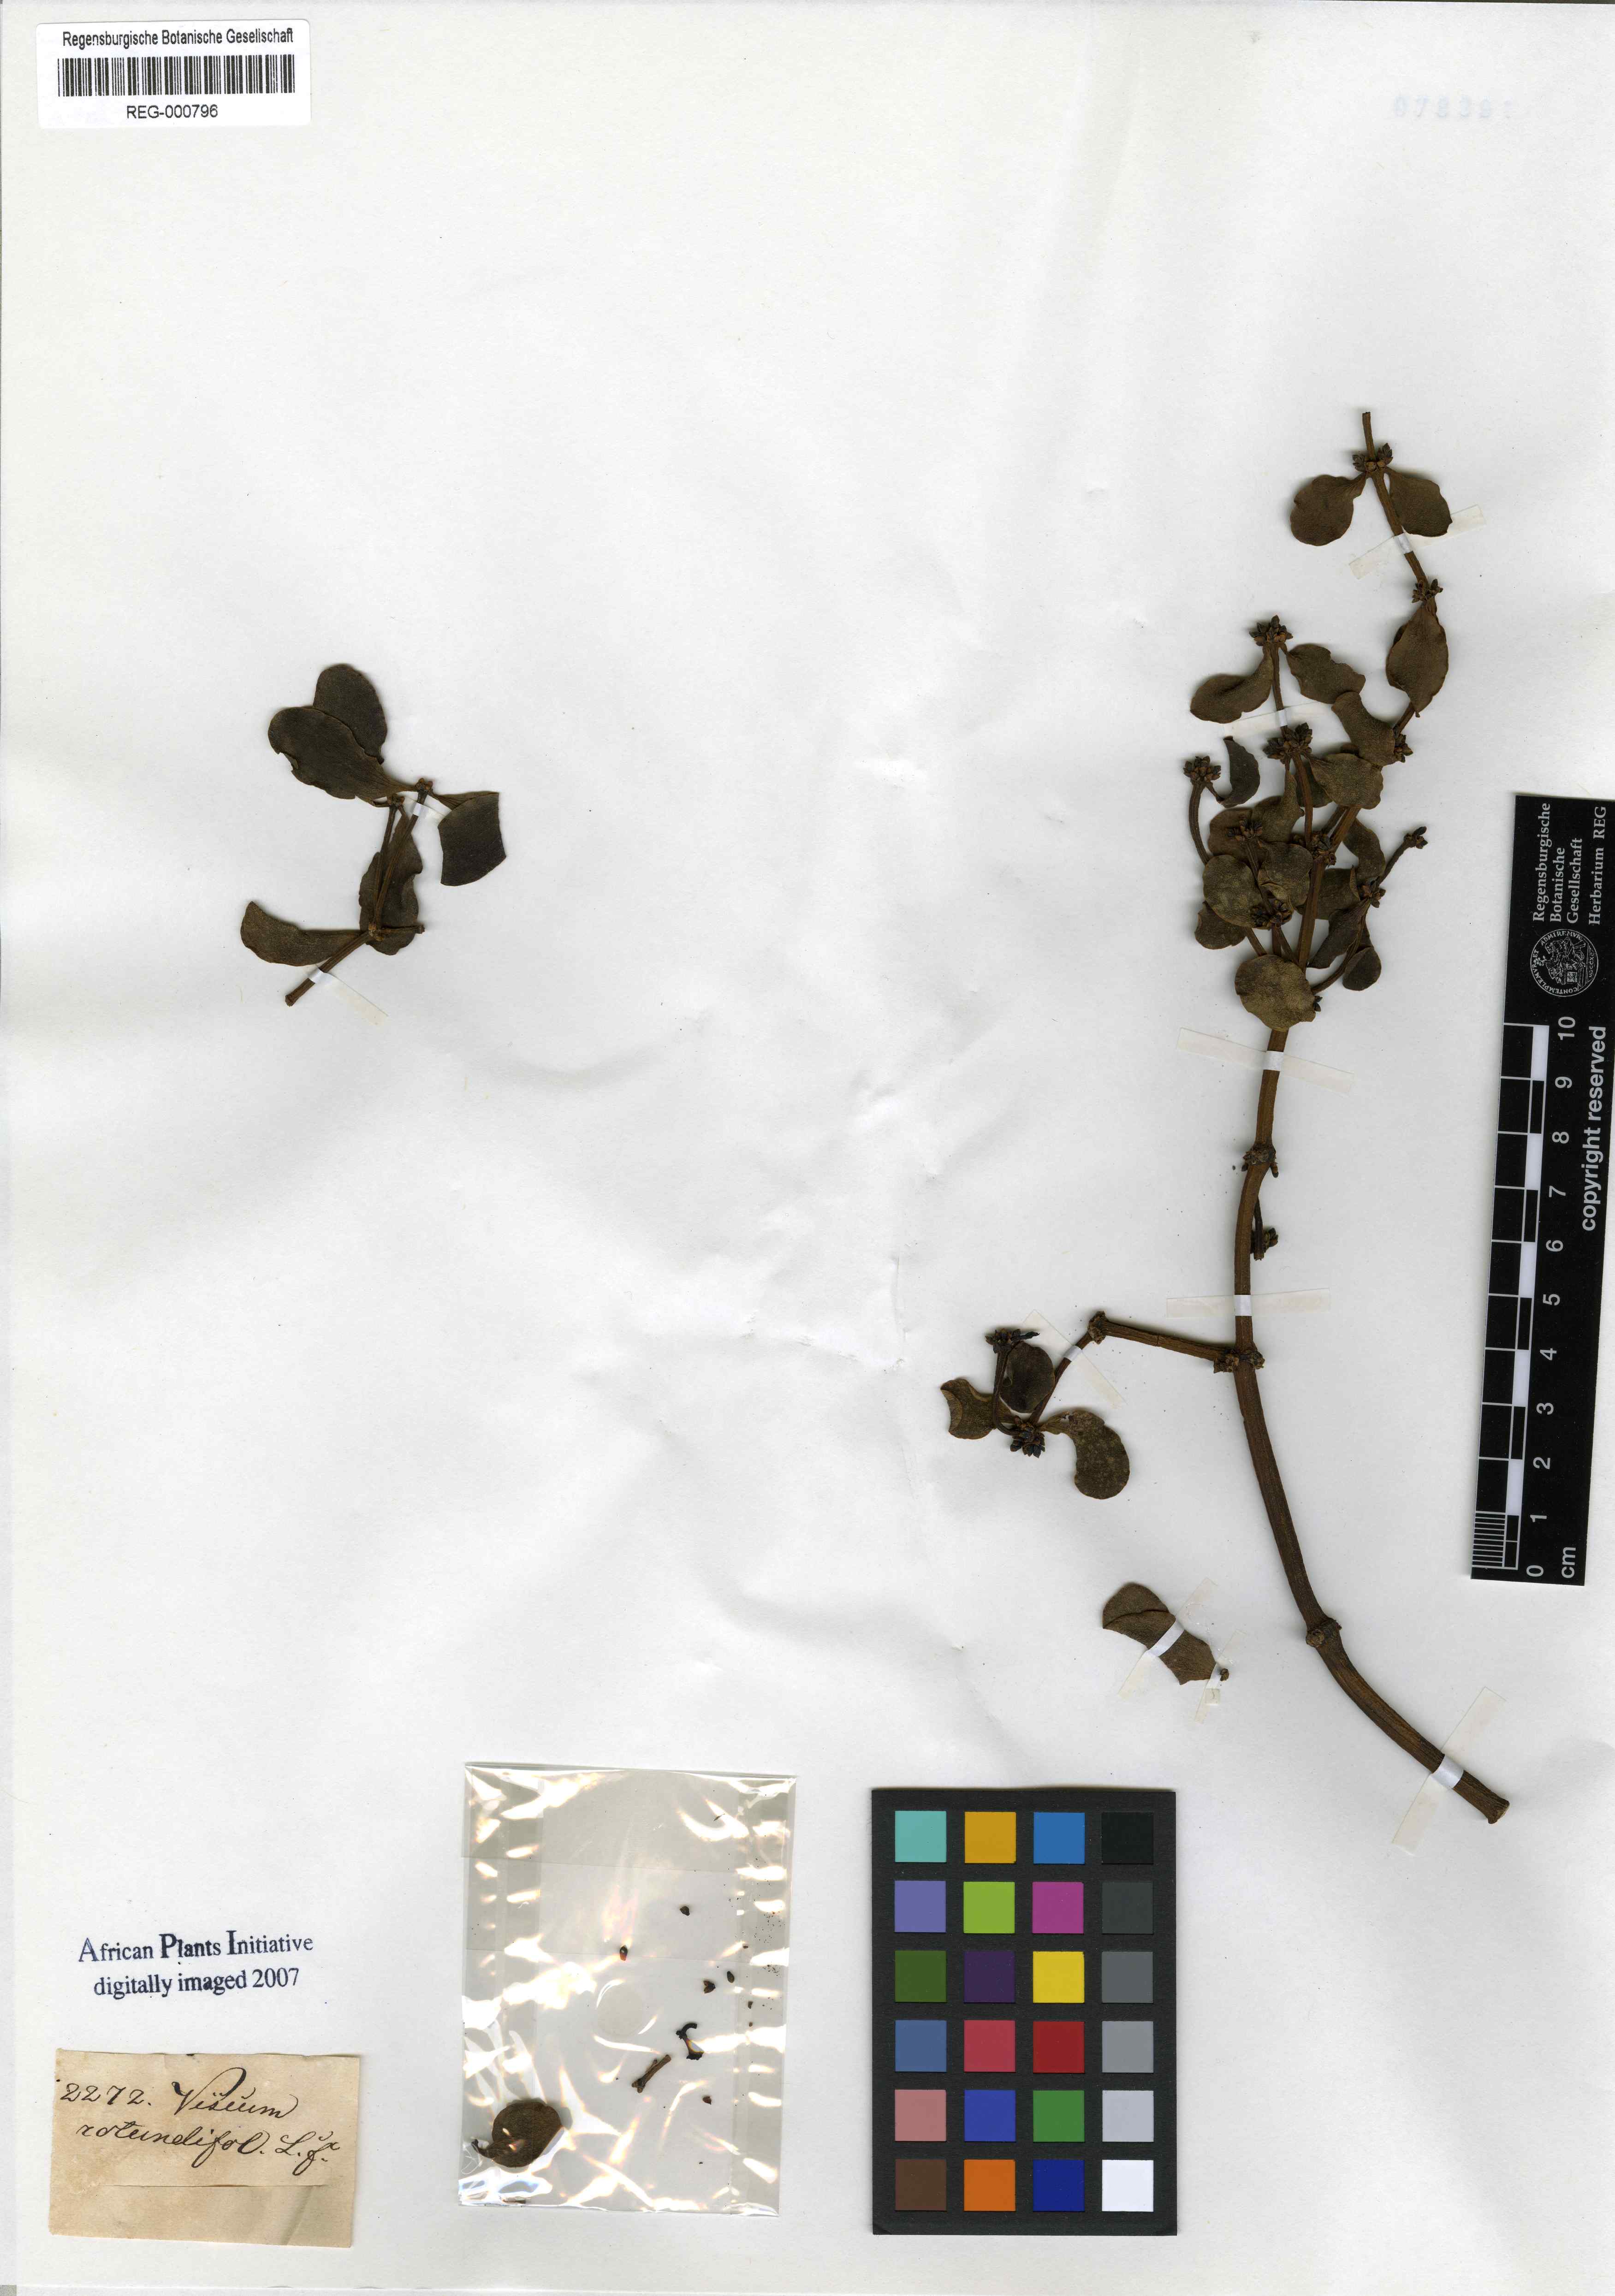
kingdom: Plantae
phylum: Tracheophyta
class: Magnoliopsida
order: Santalales
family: Viscaceae
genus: Viscum
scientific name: Viscum rotundifolium
